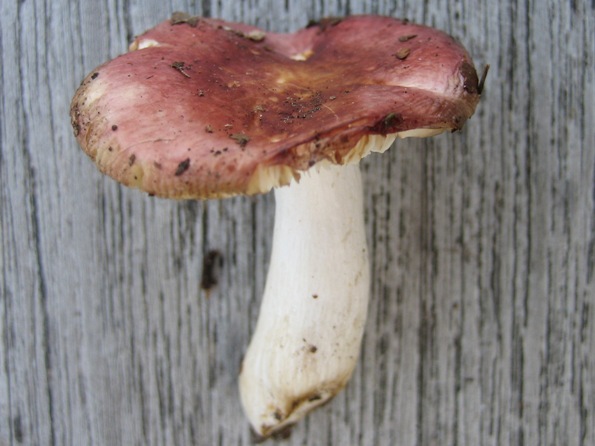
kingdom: Fungi
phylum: Basidiomycota
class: Agaricomycetes
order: Russulales
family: Russulaceae
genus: Russula
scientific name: Russula aurora
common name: rosa skørhat
